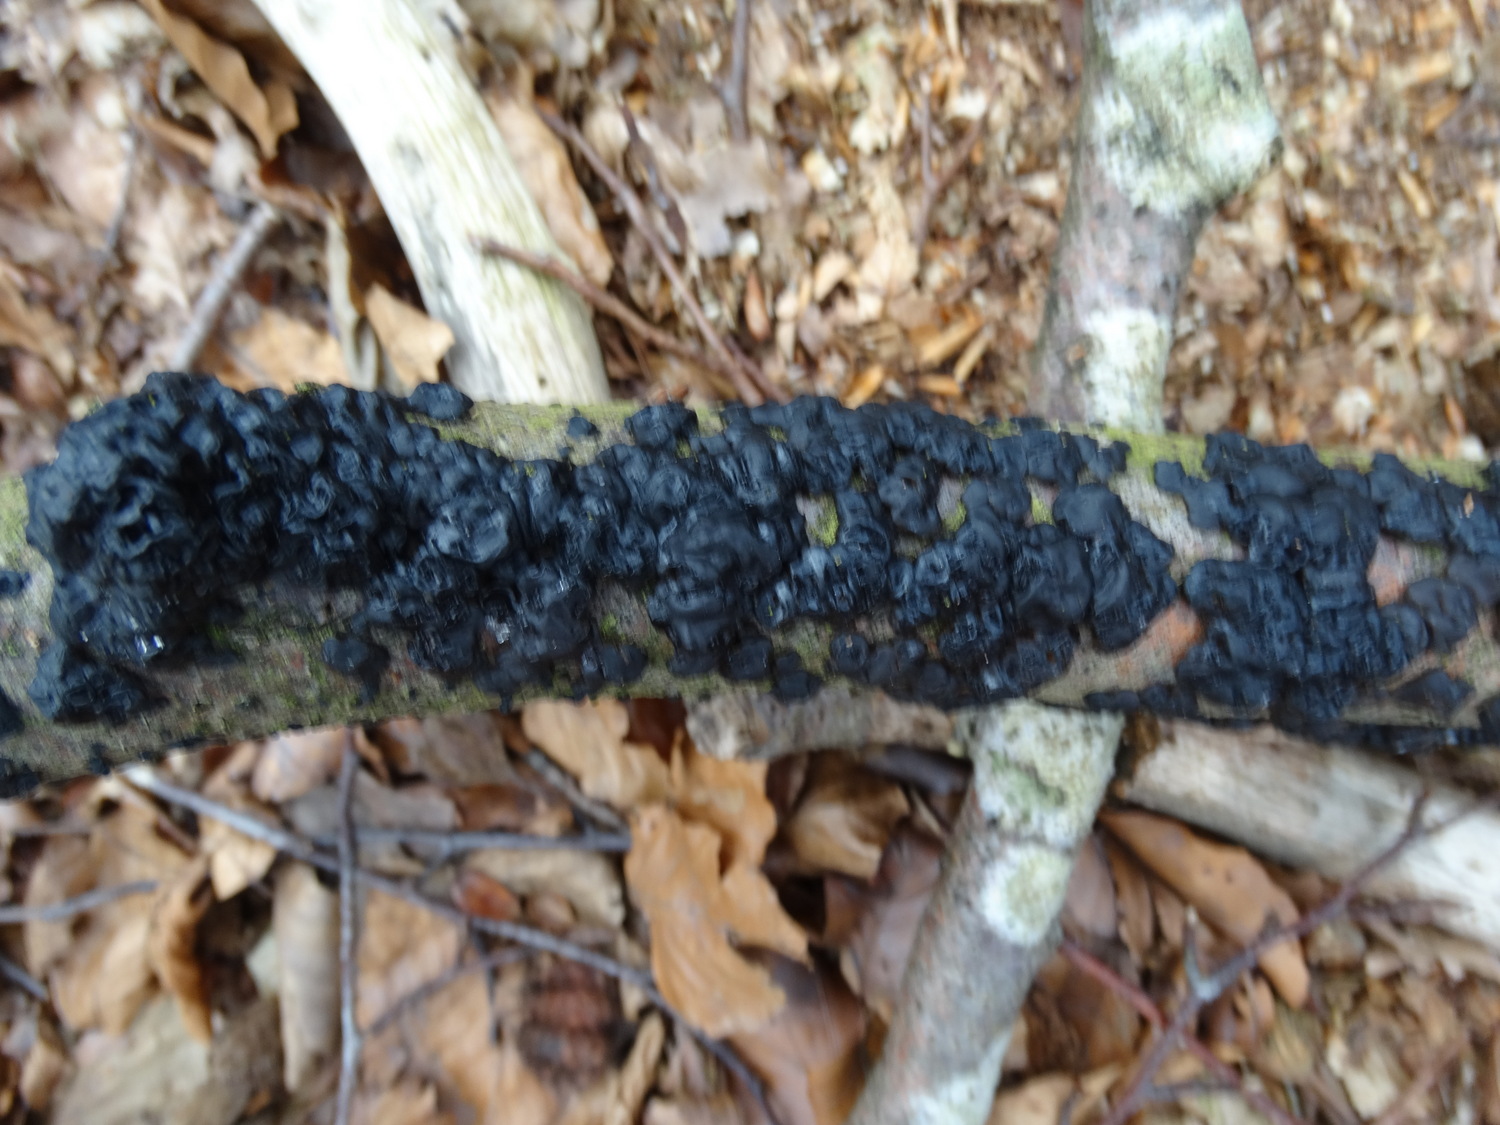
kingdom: Fungi
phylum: Basidiomycota
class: Agaricomycetes
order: Auriculariales
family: Auriculariaceae
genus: Exidia
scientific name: Exidia nigricans
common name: almindelig bævretop
